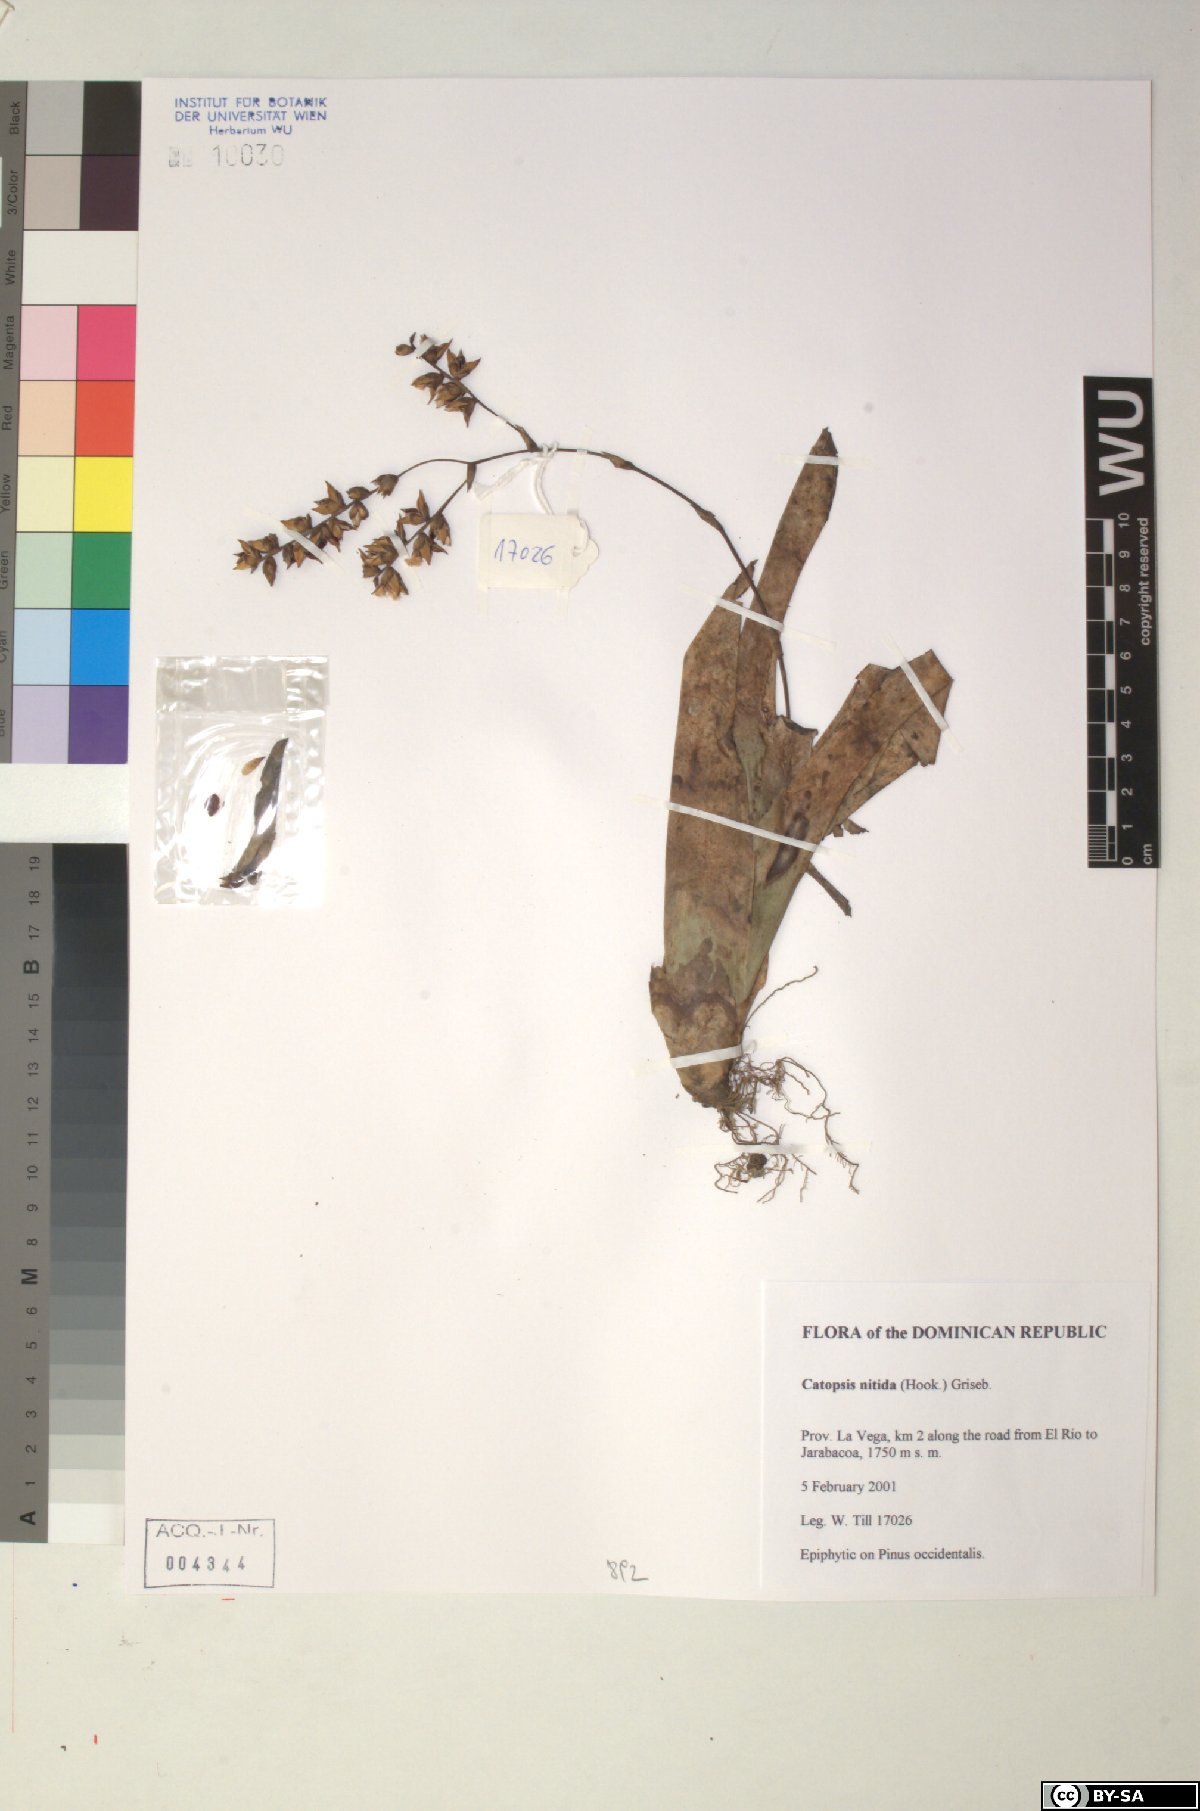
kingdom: Plantae
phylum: Tracheophyta
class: Liliopsida
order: Poales
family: Bromeliaceae
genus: Catopsis
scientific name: Catopsis nitida
